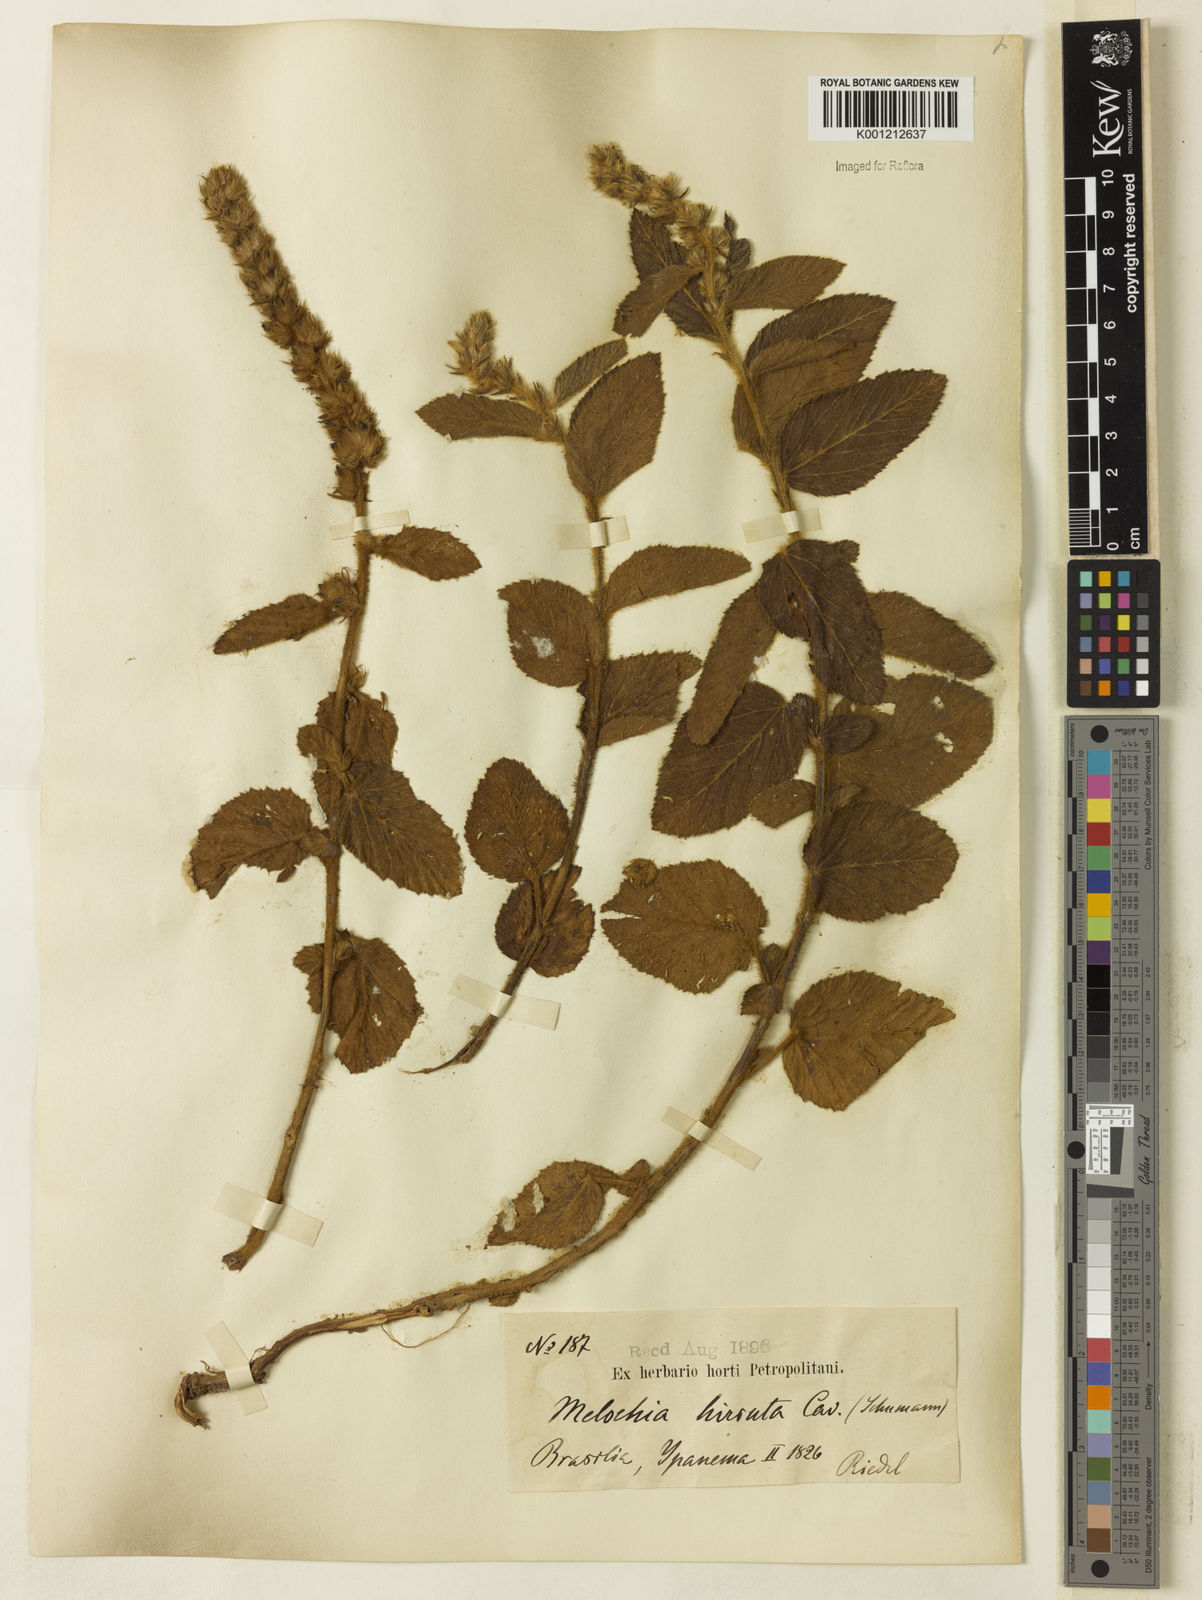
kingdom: Plantae
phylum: Tracheophyta
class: Magnoliopsida
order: Malvales
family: Malvaceae
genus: Melochia
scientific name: Melochia spicata
